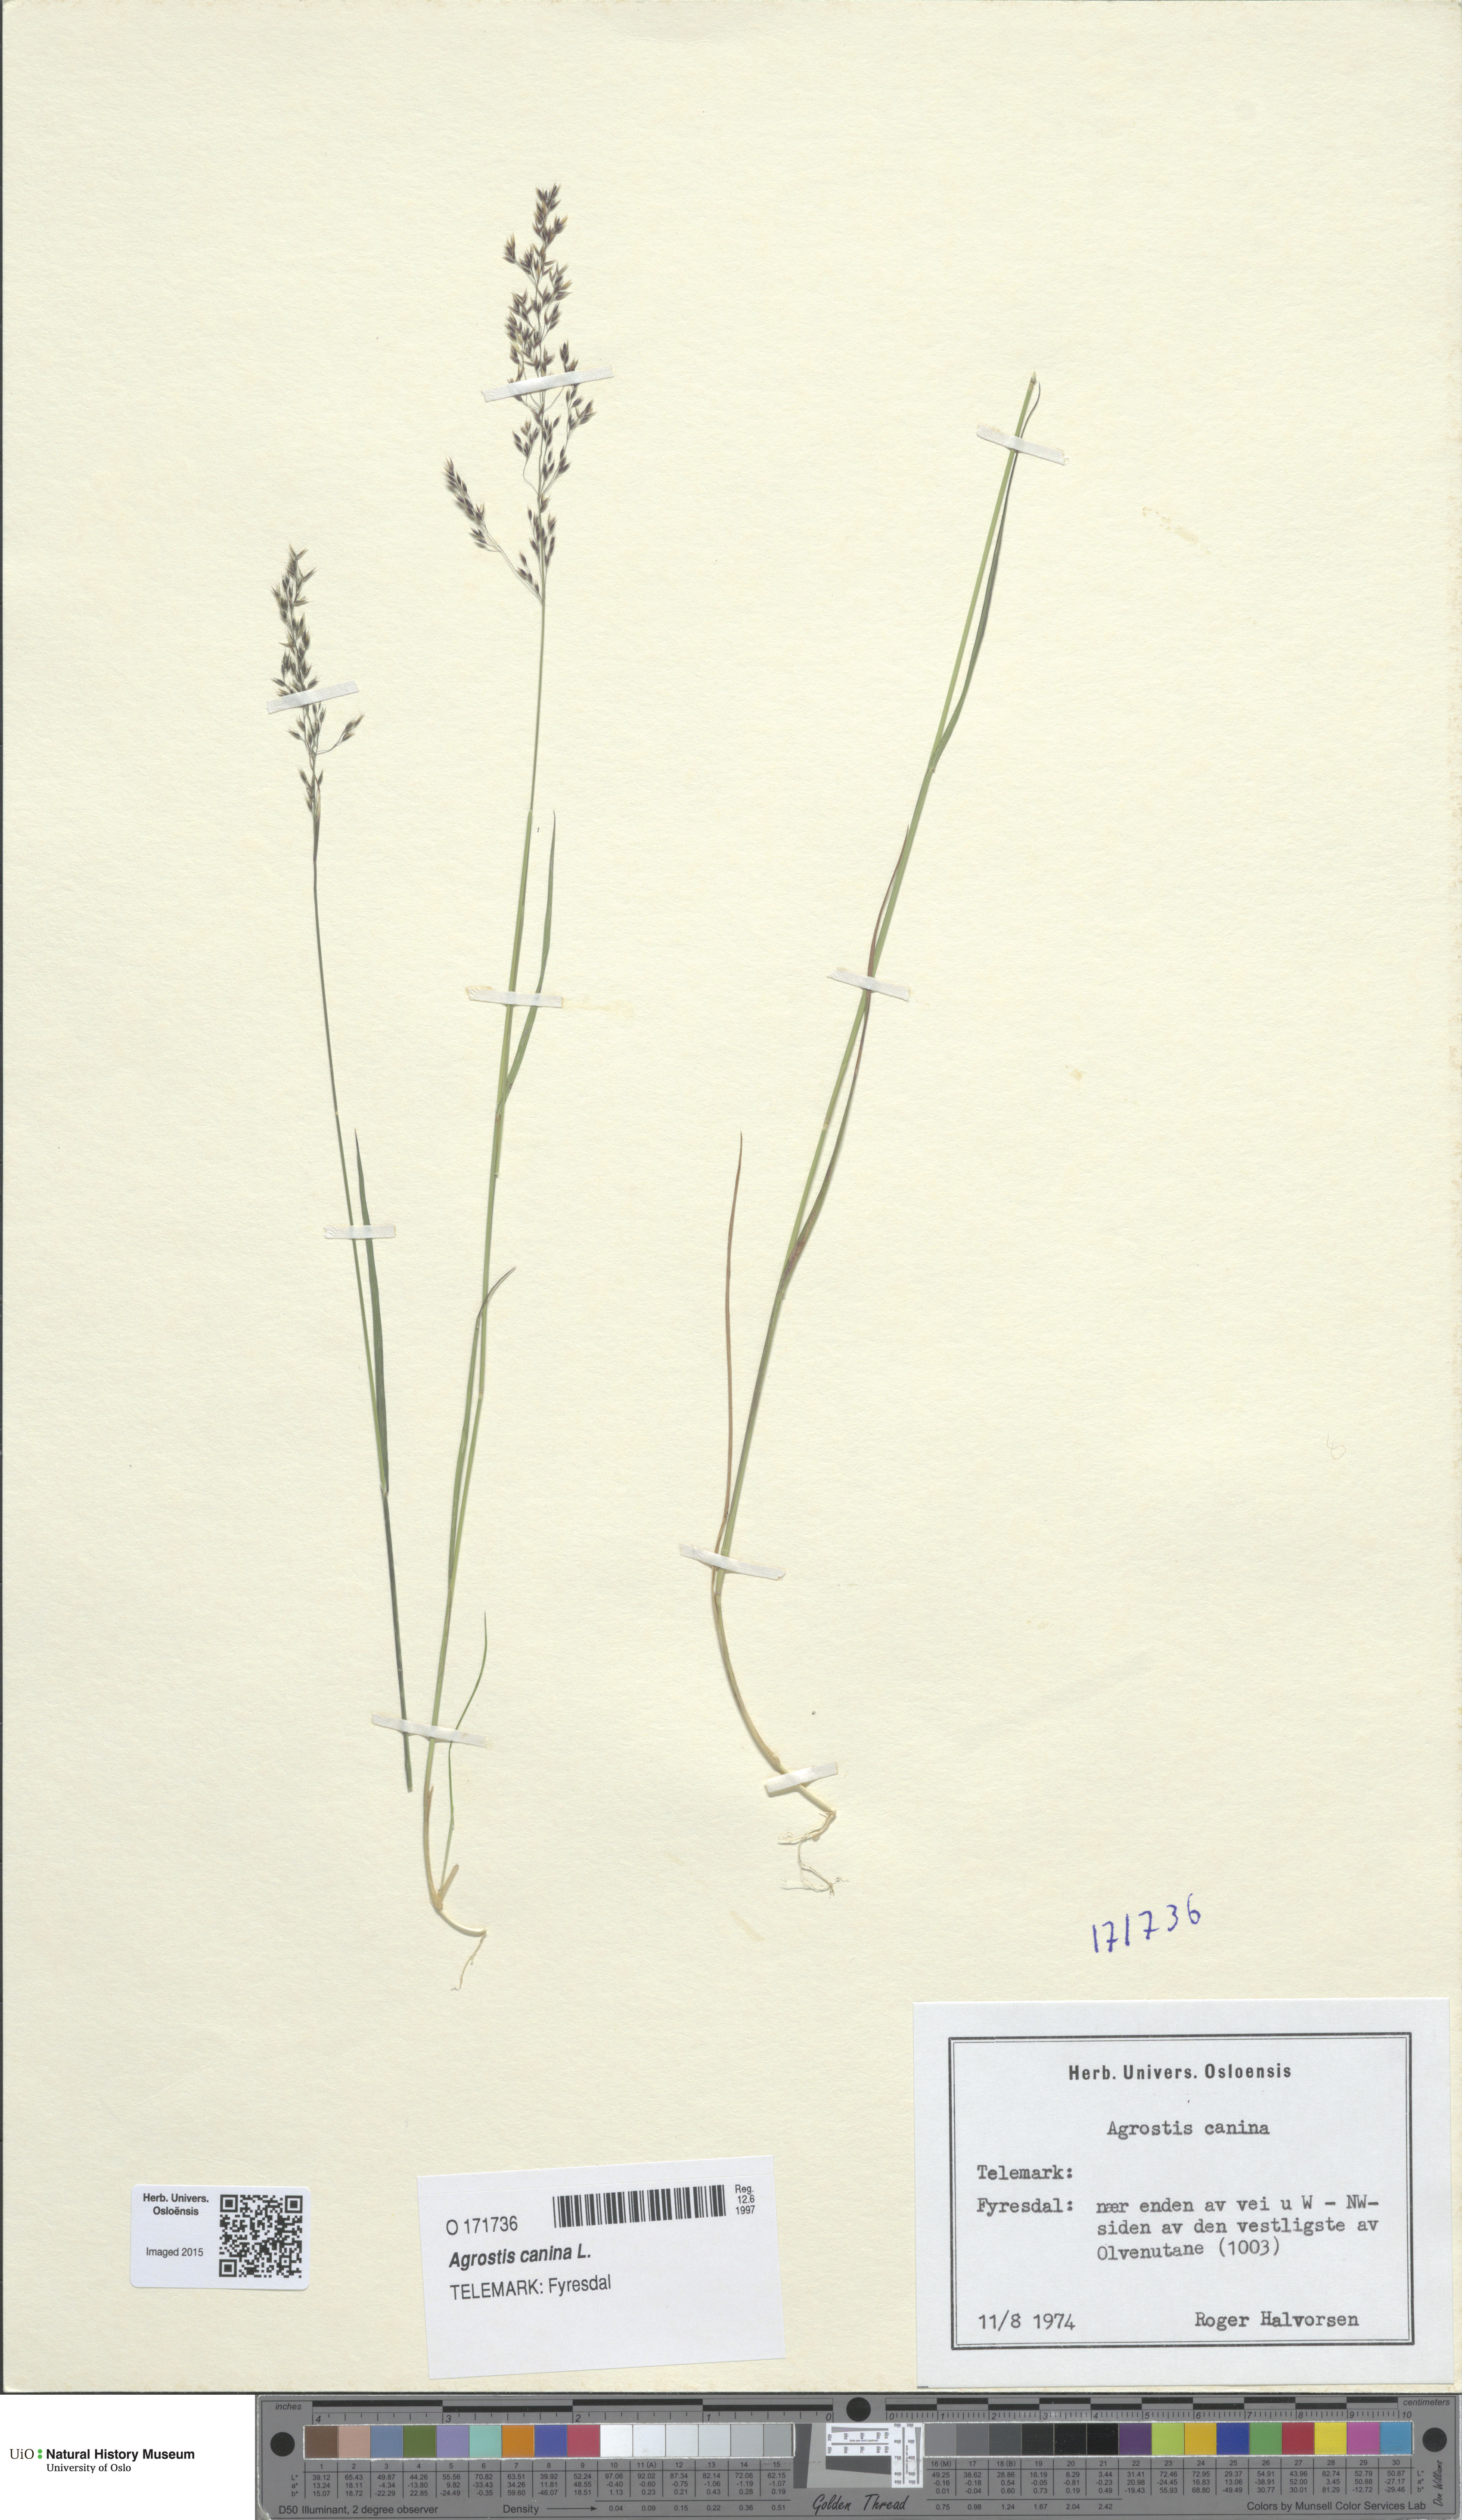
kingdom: Plantae
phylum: Tracheophyta
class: Liliopsida
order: Poales
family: Poaceae
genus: Agrostis
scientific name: Agrostis canina
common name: Velvet bent
